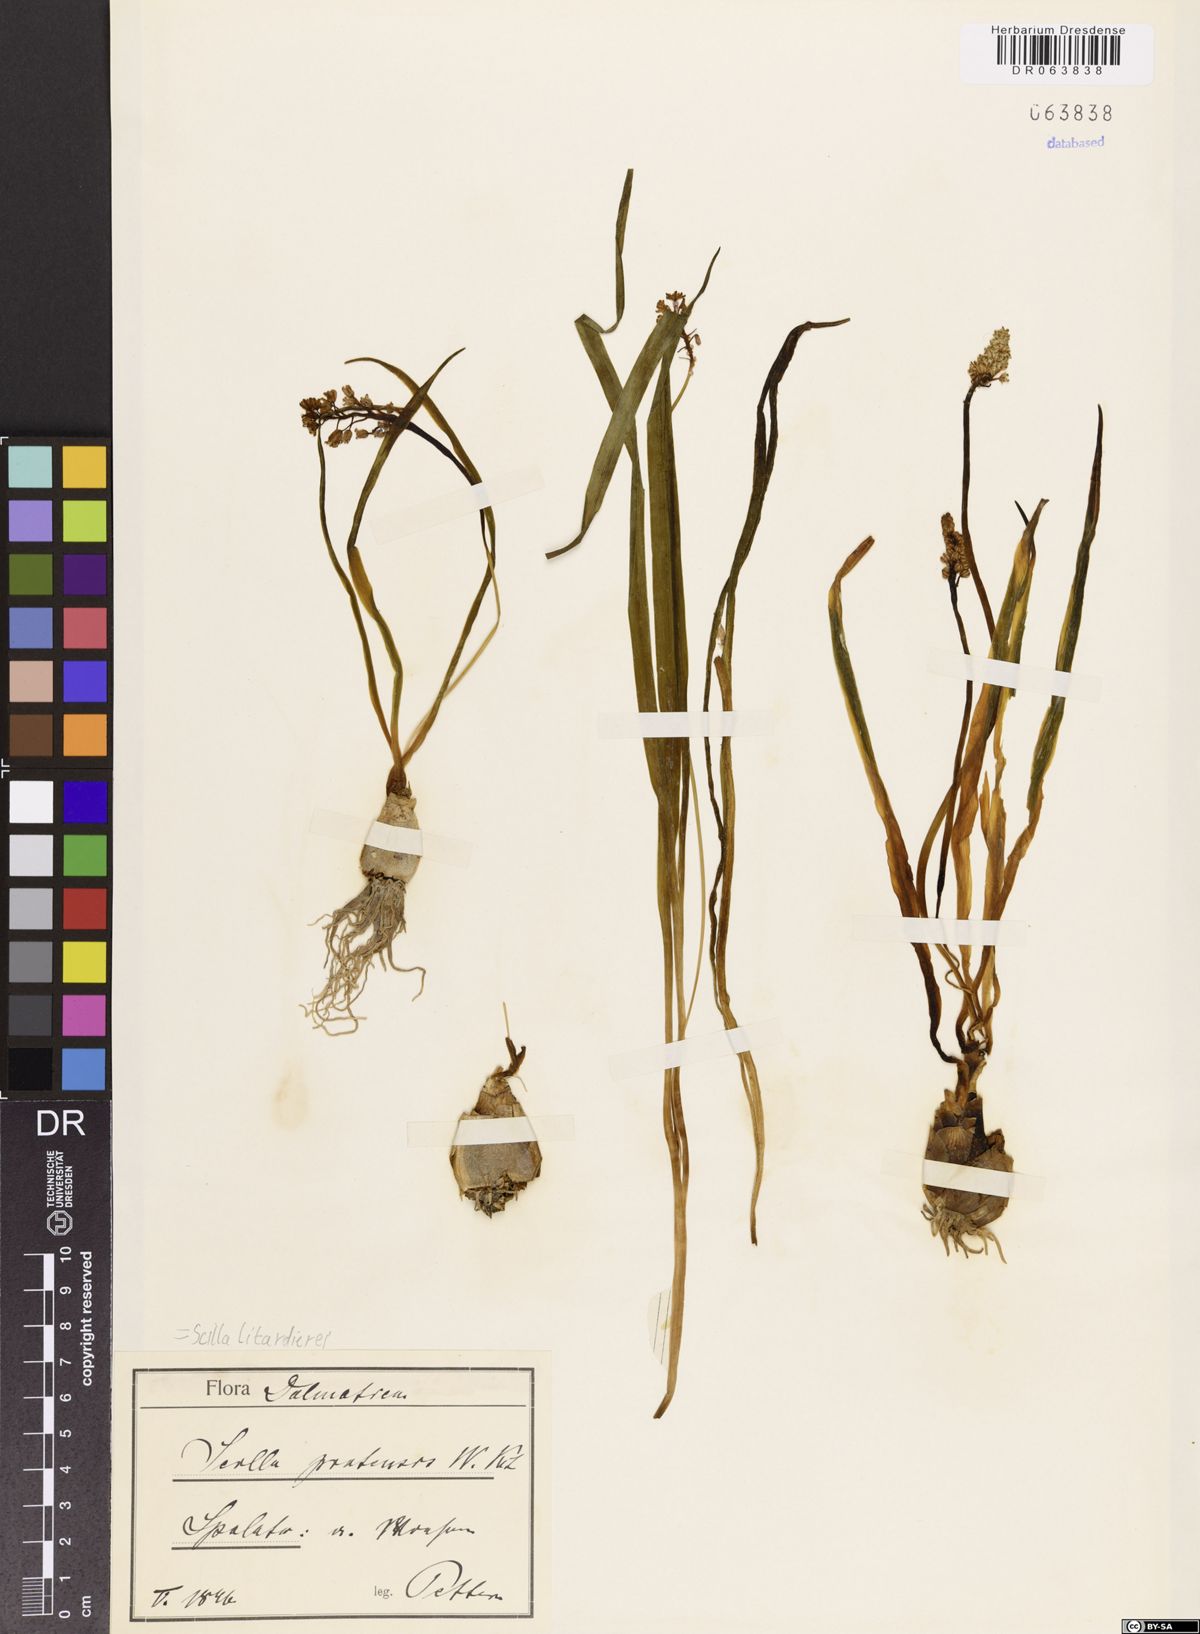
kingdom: Plantae
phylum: Tracheophyta
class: Liliopsida
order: Asparagales
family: Asparagaceae
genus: Scilla
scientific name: Scilla litardierei
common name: Amethyst meadow squill
